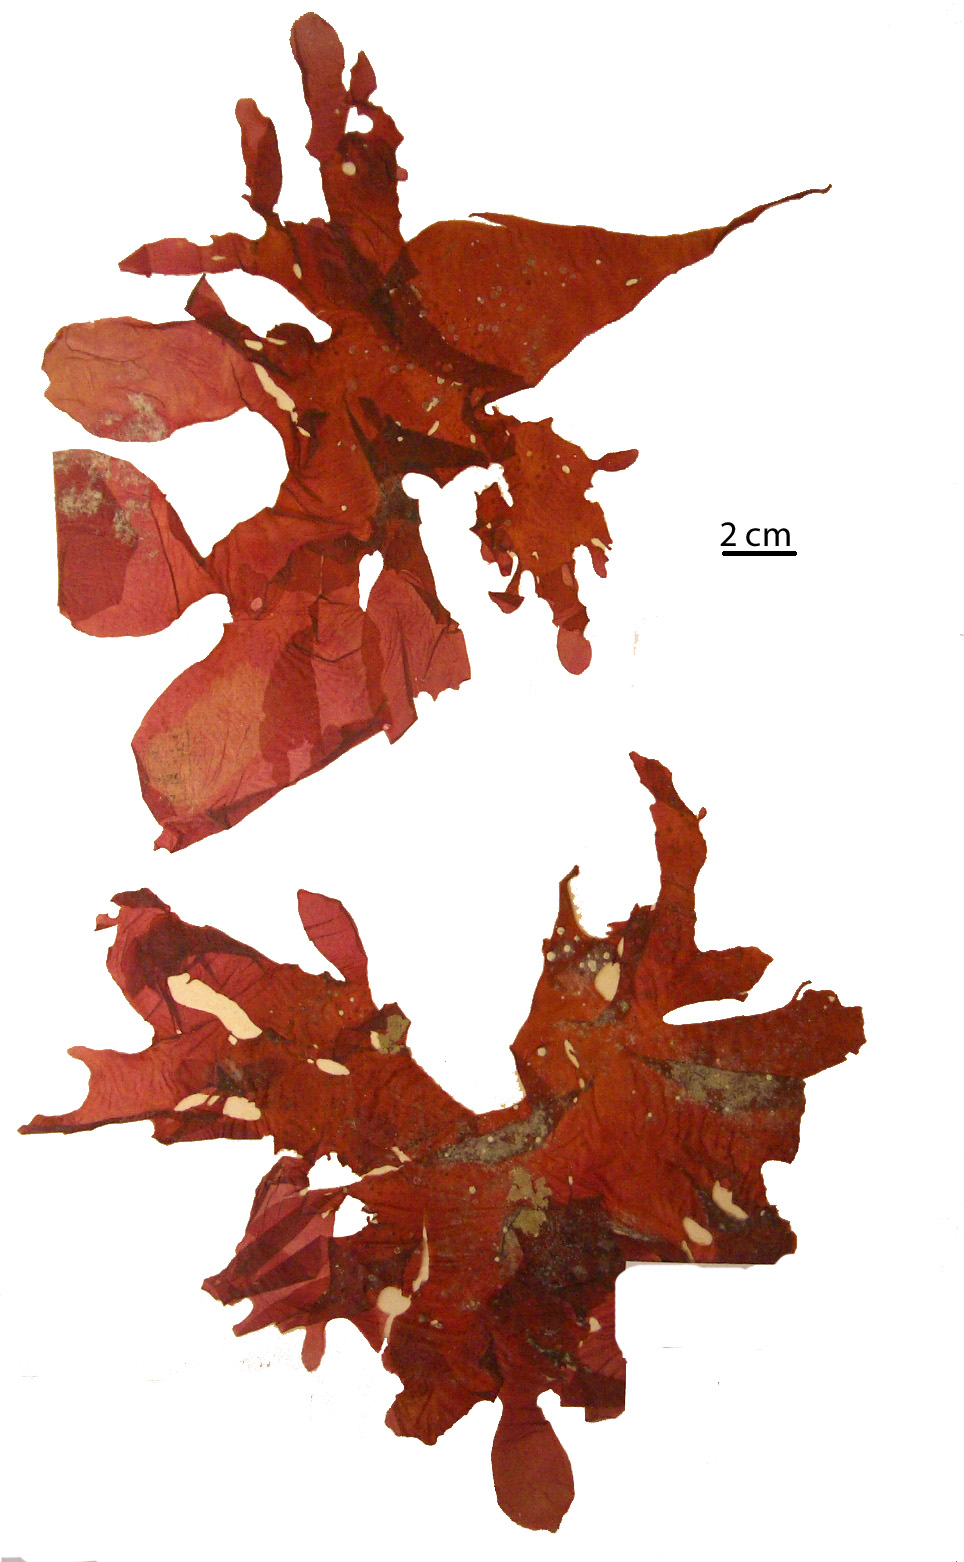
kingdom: Plantae
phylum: Rhodophyta
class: Florideophyceae
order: Gigartinales
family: Kallymeniaceae
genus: Psaromenia
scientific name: Psaromenia berggrenii
